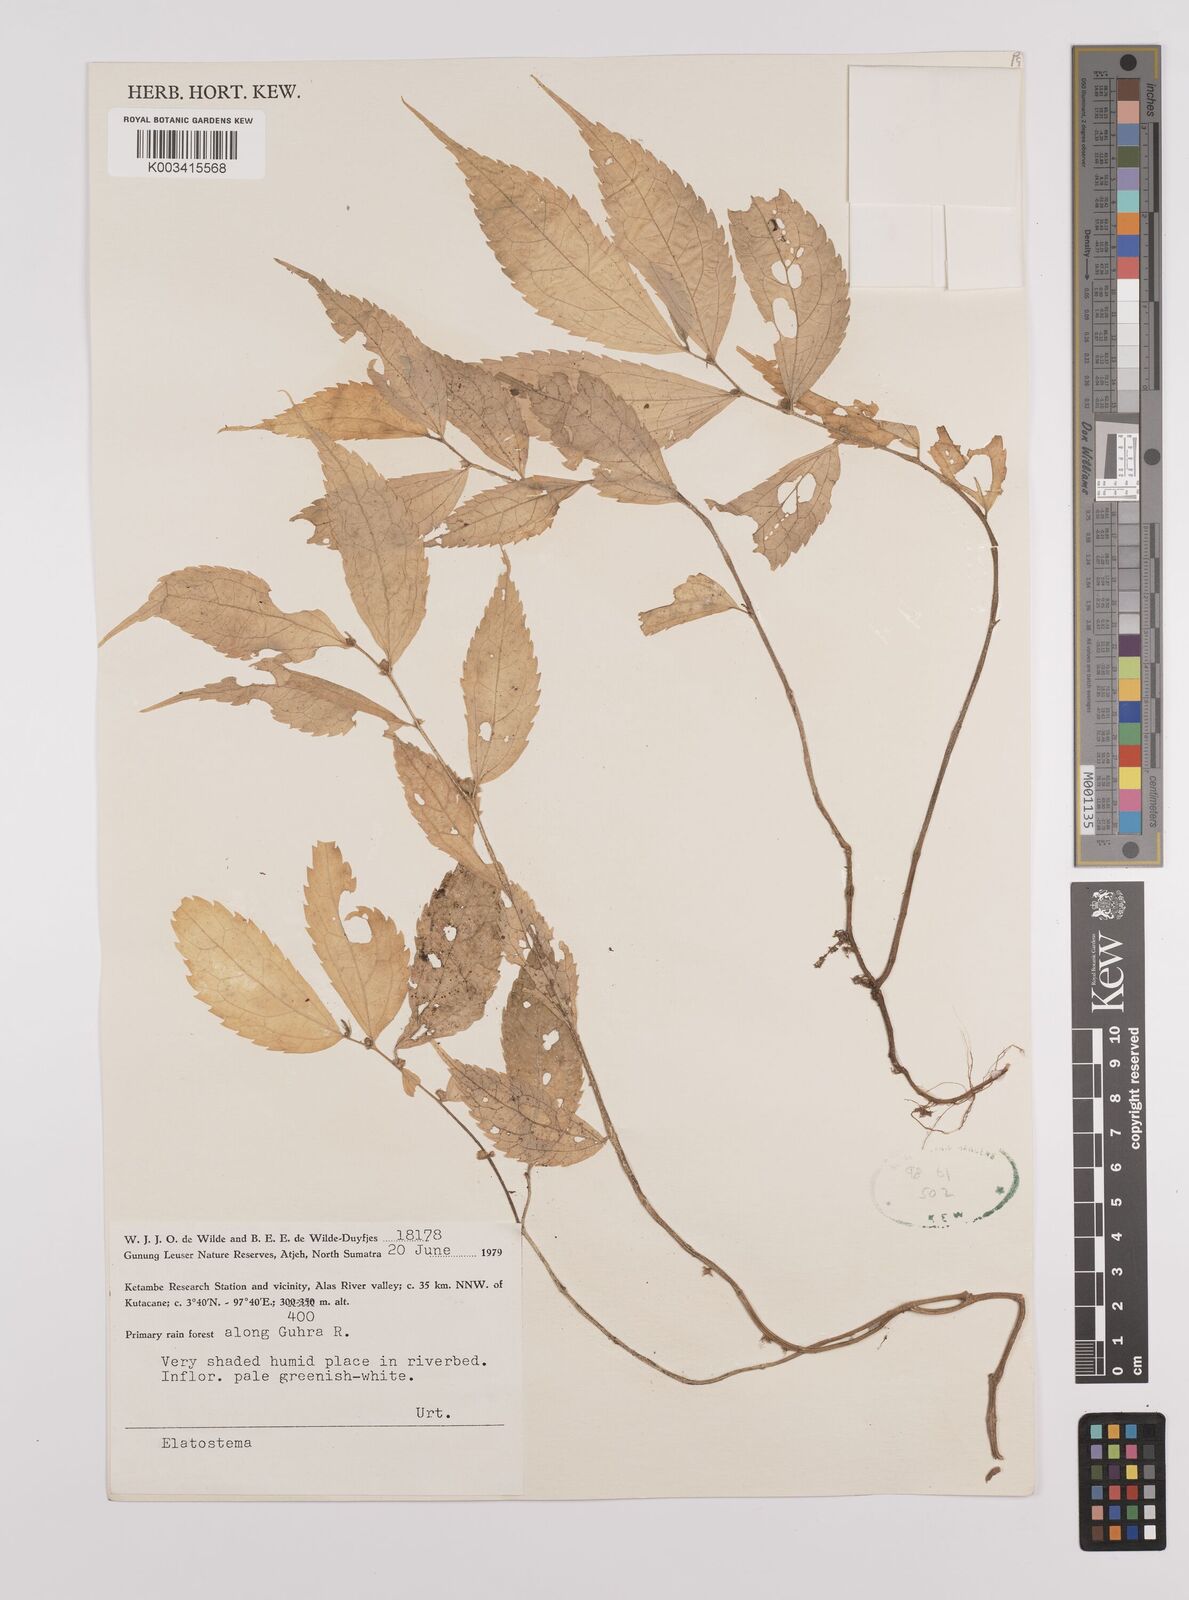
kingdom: Plantae
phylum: Tracheophyta
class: Magnoliopsida
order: Rosales
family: Urticaceae
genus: Elatostema
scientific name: Elatostema
